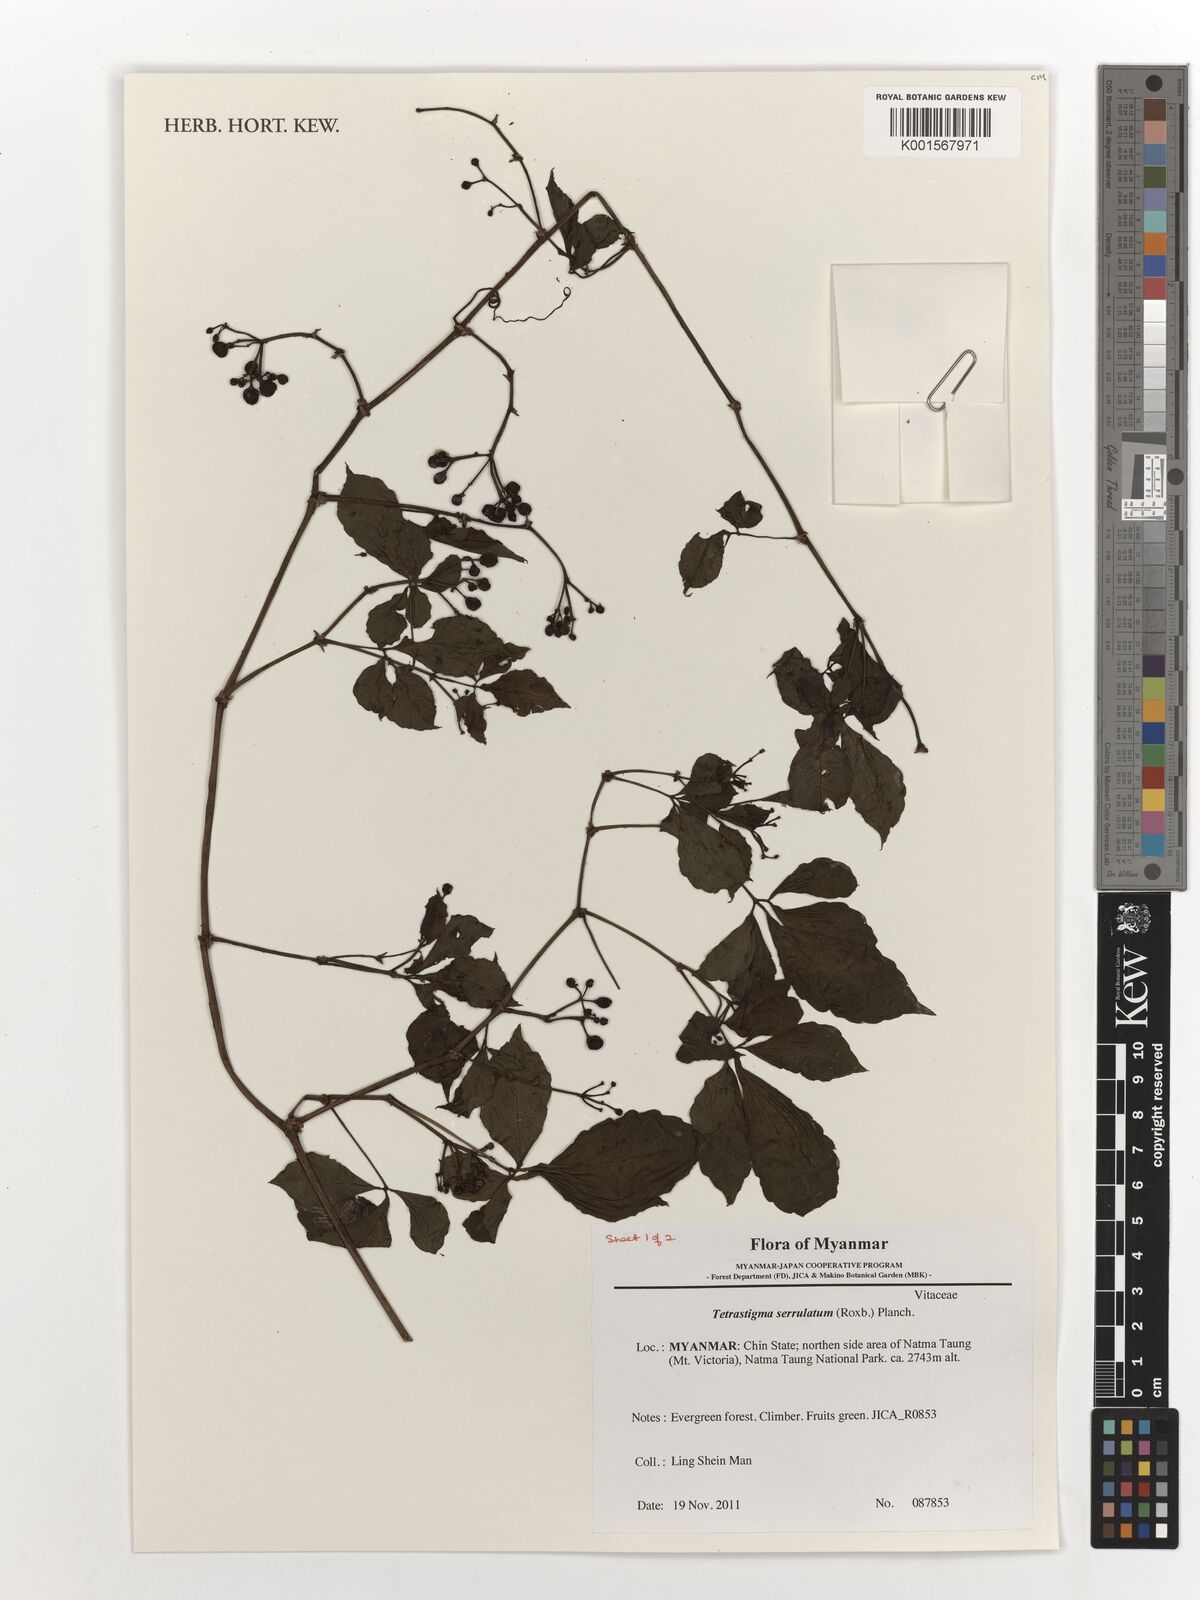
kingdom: Plantae
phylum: Tracheophyta
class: Magnoliopsida
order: Vitales
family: Vitaceae
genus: Tetrastigma
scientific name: Tetrastigma serrulatum
